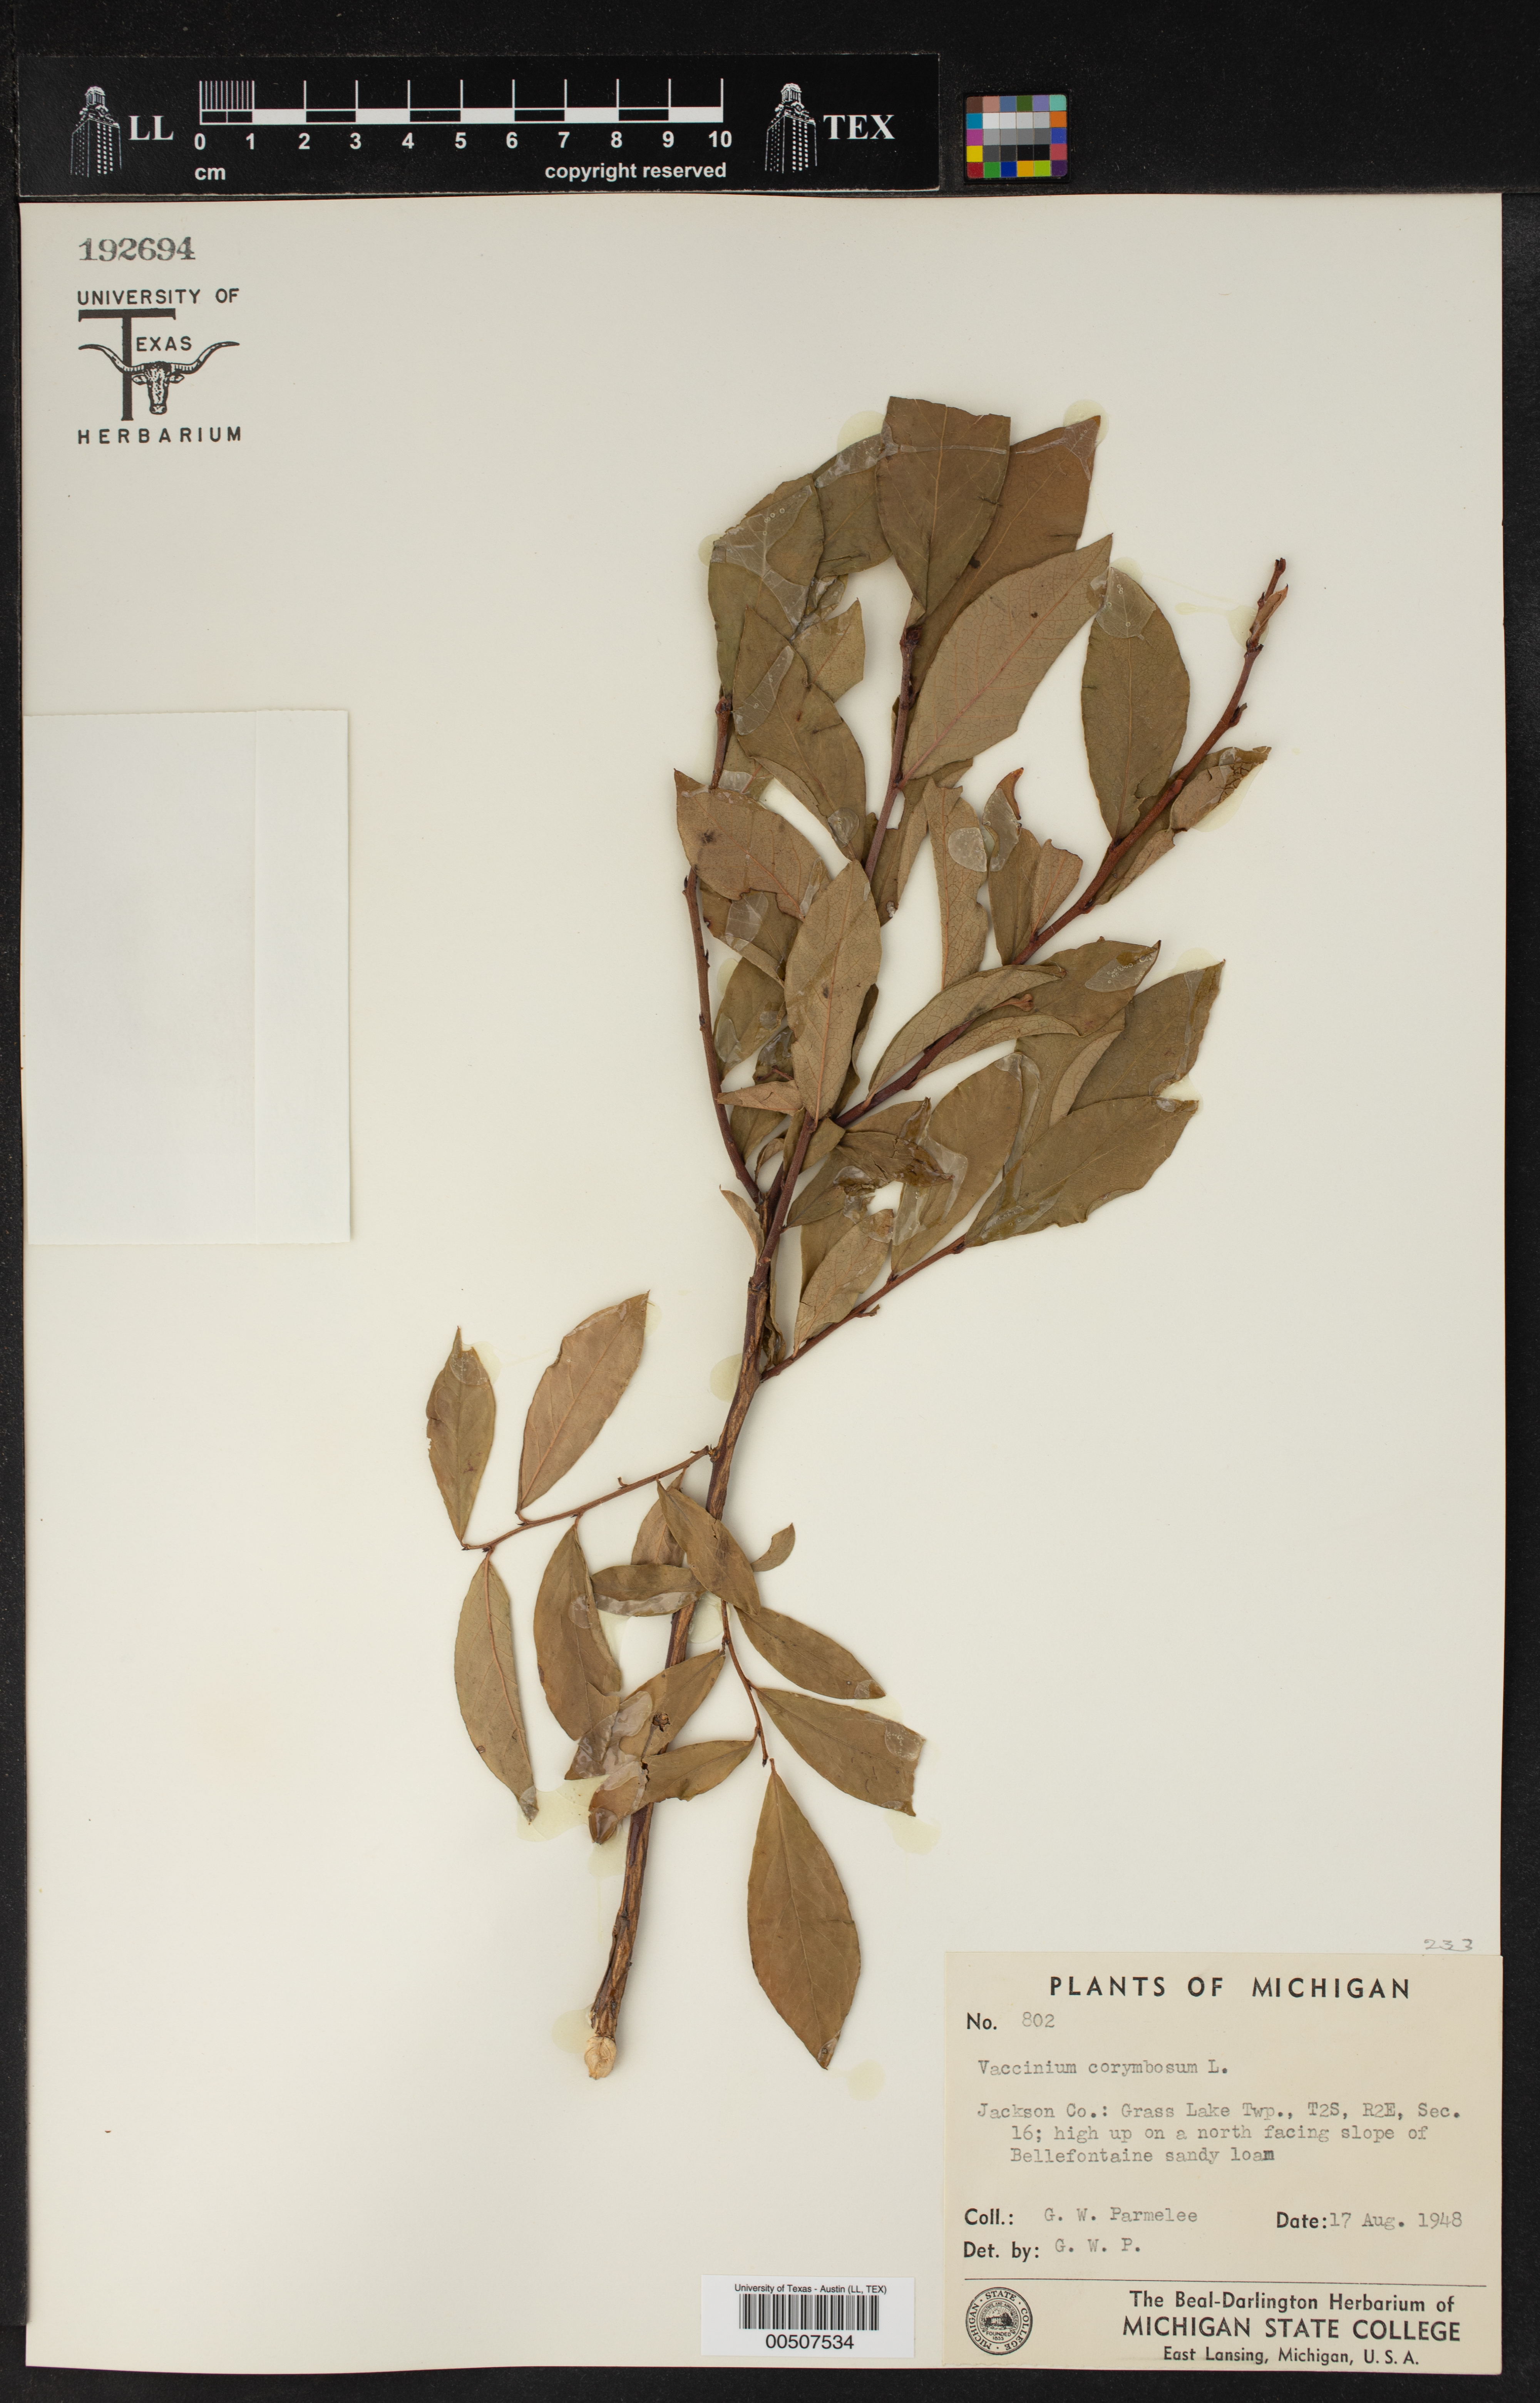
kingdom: Plantae
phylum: Tracheophyta
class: Magnoliopsida
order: Ericales
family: Ericaceae
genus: Vaccinium
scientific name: Vaccinium corymbosum
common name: Blueberry
